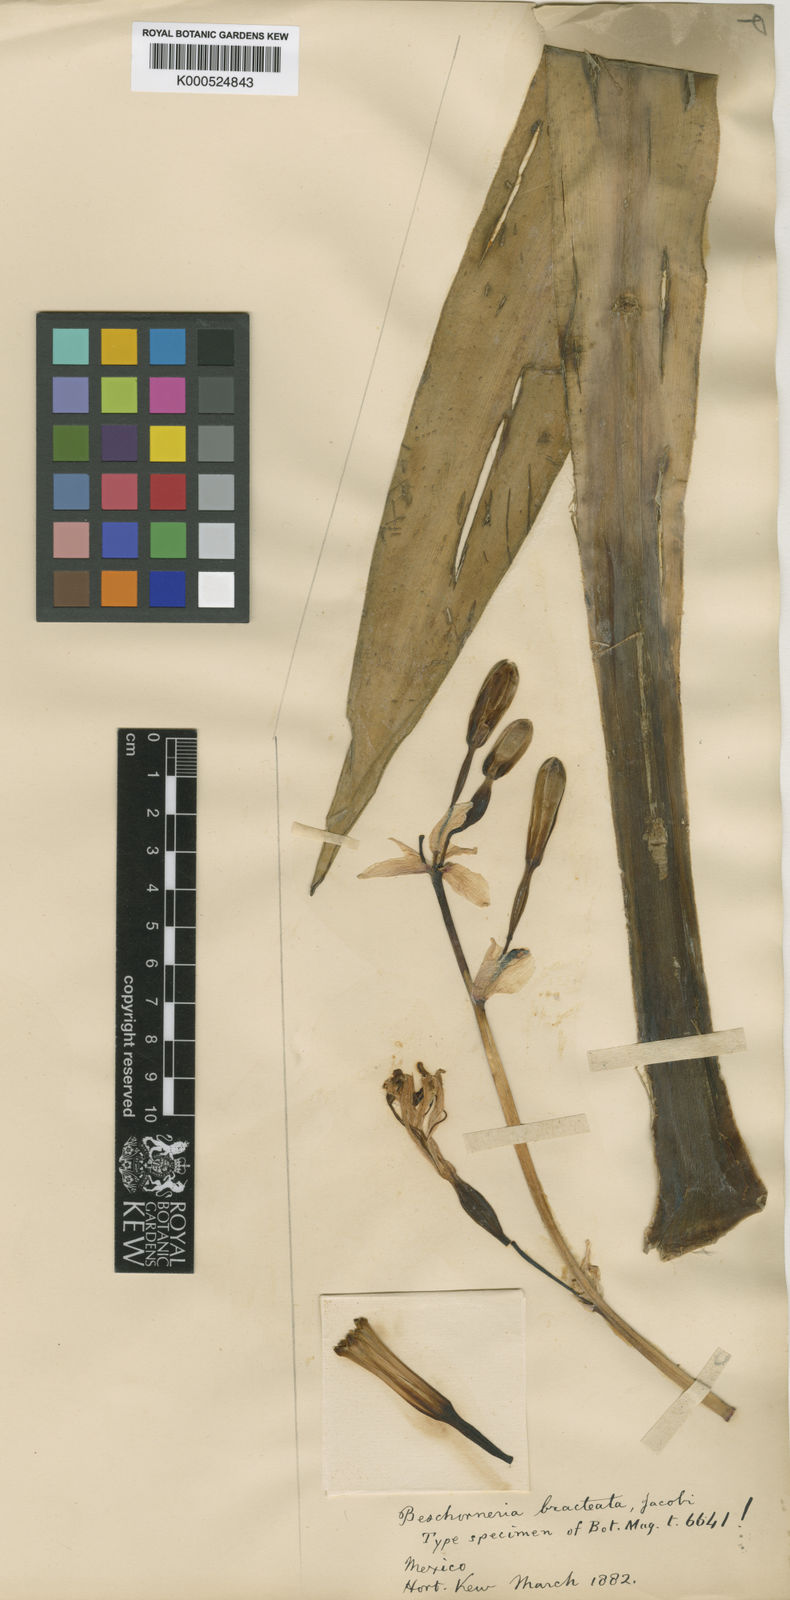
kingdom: Plantae
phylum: Tracheophyta
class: Liliopsida
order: Asparagales
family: Asparagaceae
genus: Beschorneria
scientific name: Beschorneria
